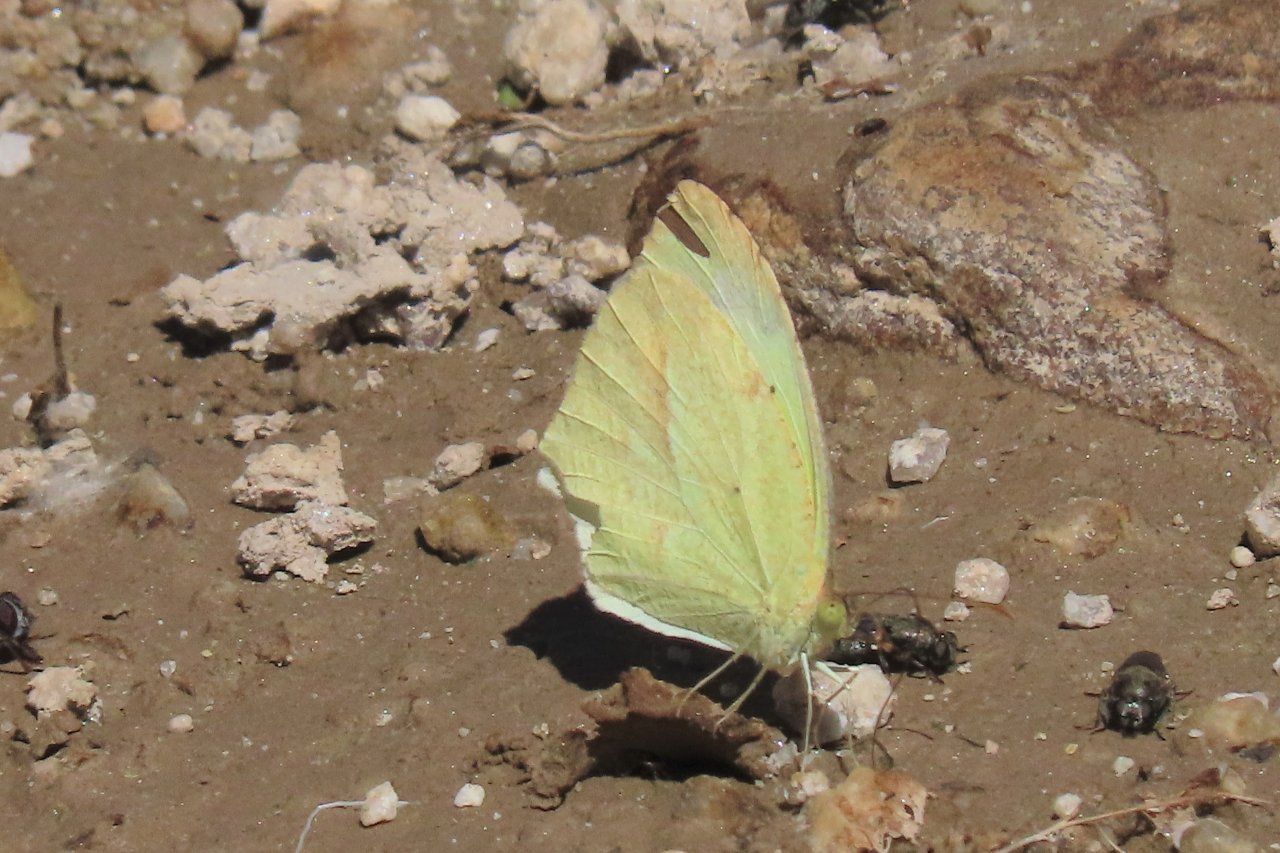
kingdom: Animalia
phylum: Arthropoda
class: Insecta
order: Lepidoptera
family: Pieridae
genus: Eurema
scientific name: Eurema mexicana
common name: Mexican Yellow
